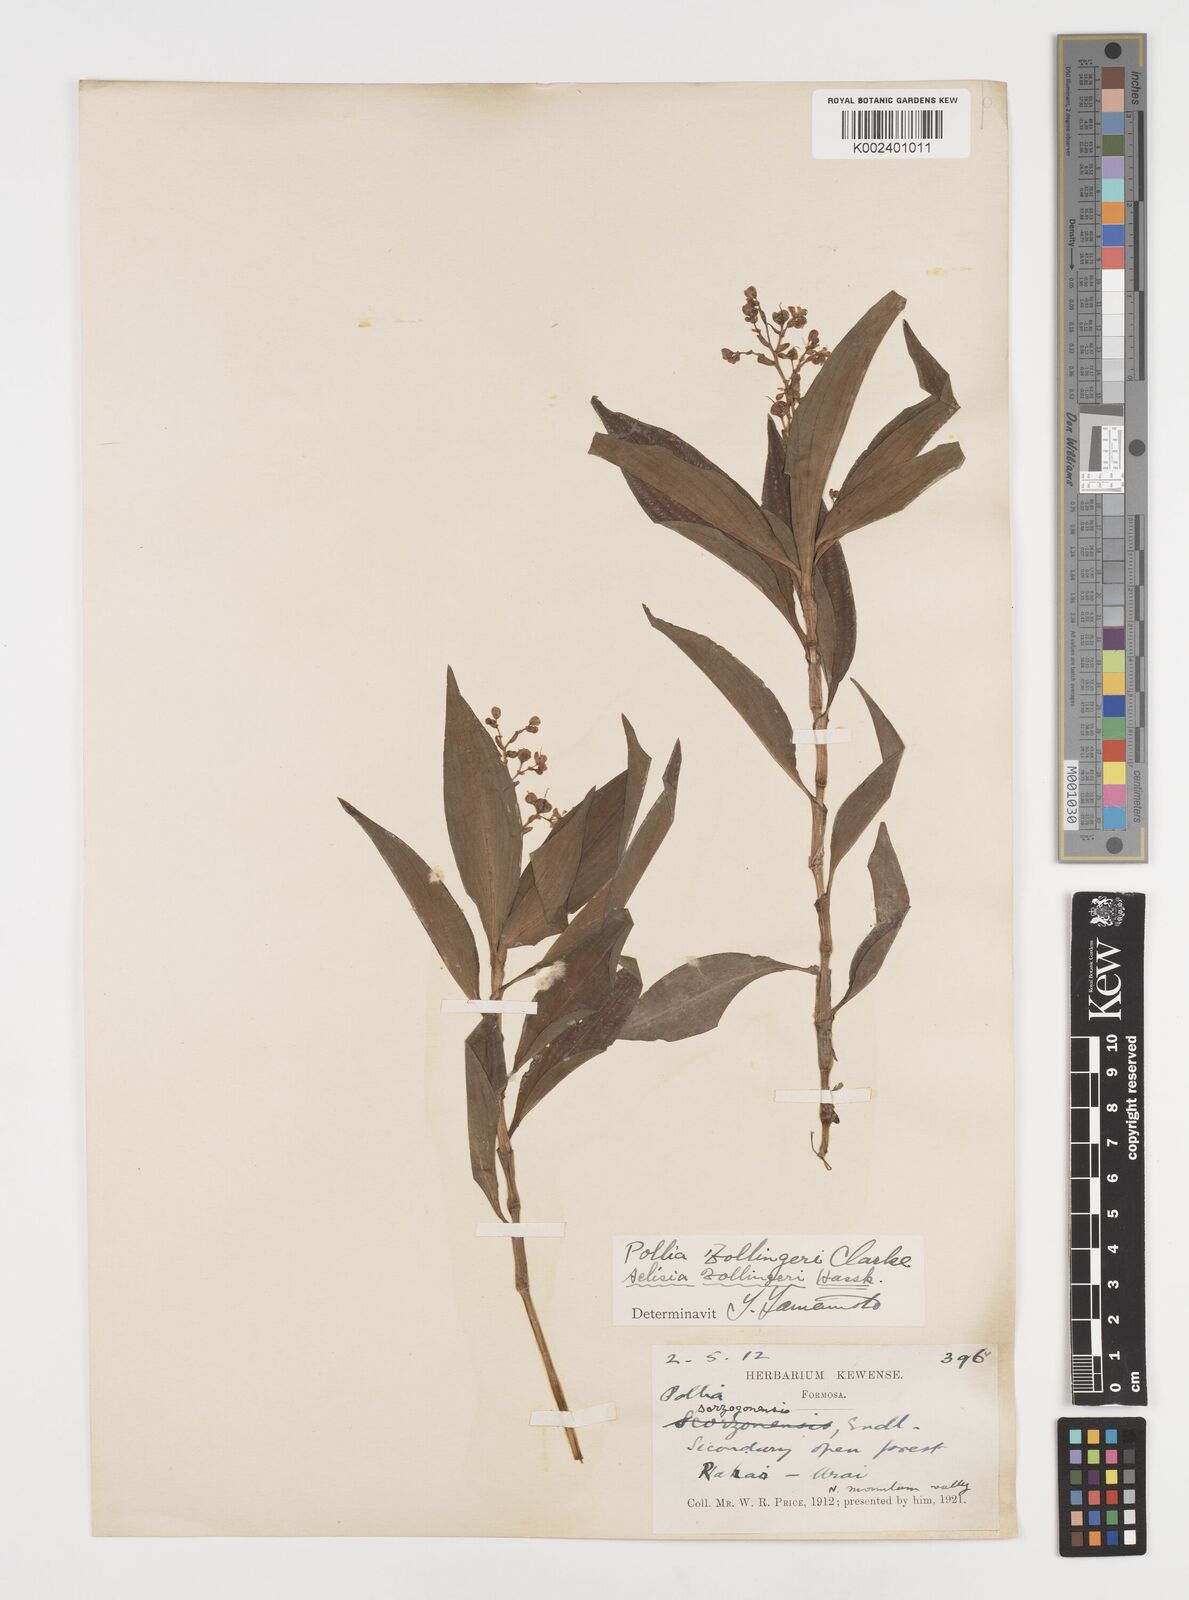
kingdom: Plantae
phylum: Tracheophyta
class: Liliopsida
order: Commelinales
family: Commelinaceae
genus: Pollia
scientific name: Pollia zollingeri
